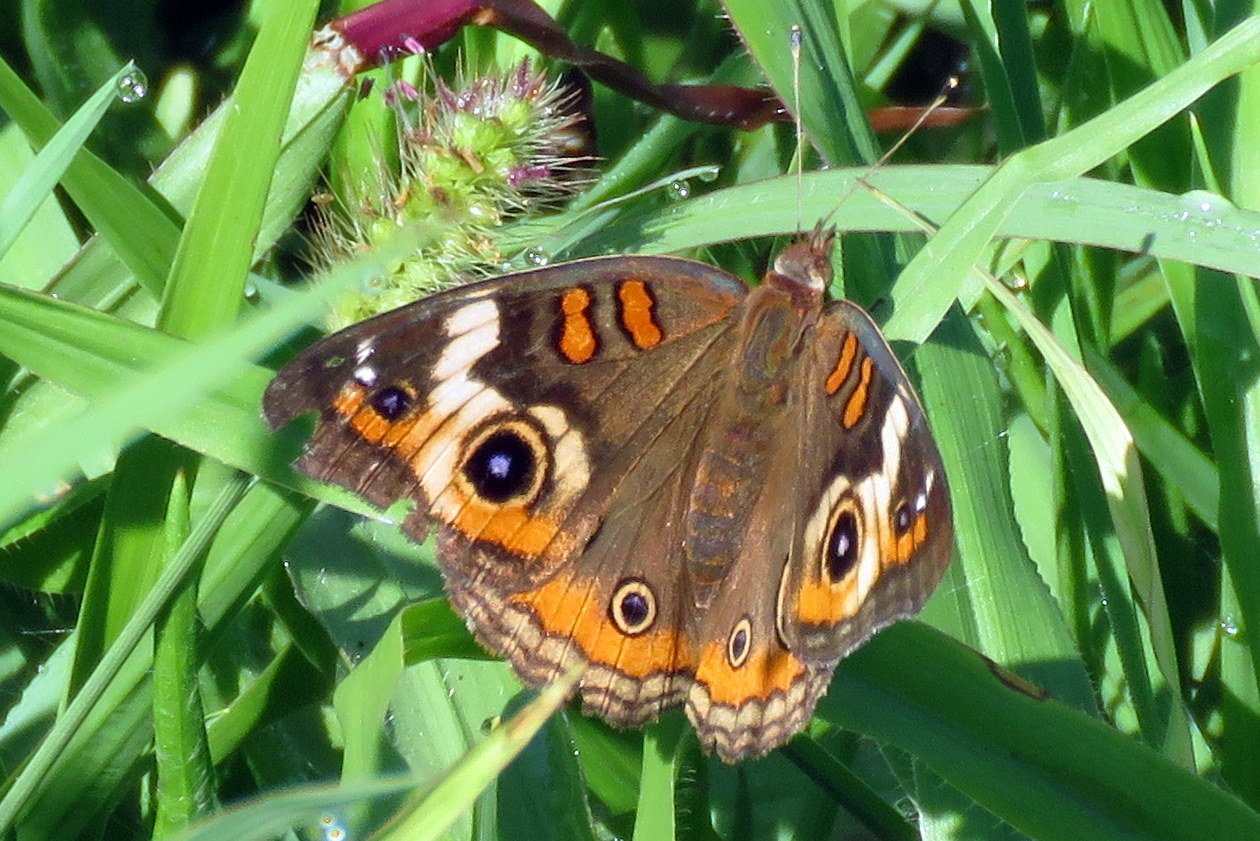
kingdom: Animalia
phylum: Arthropoda
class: Insecta
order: Lepidoptera
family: Nymphalidae
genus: Junonia
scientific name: Junonia coenia
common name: Common Buckeye
